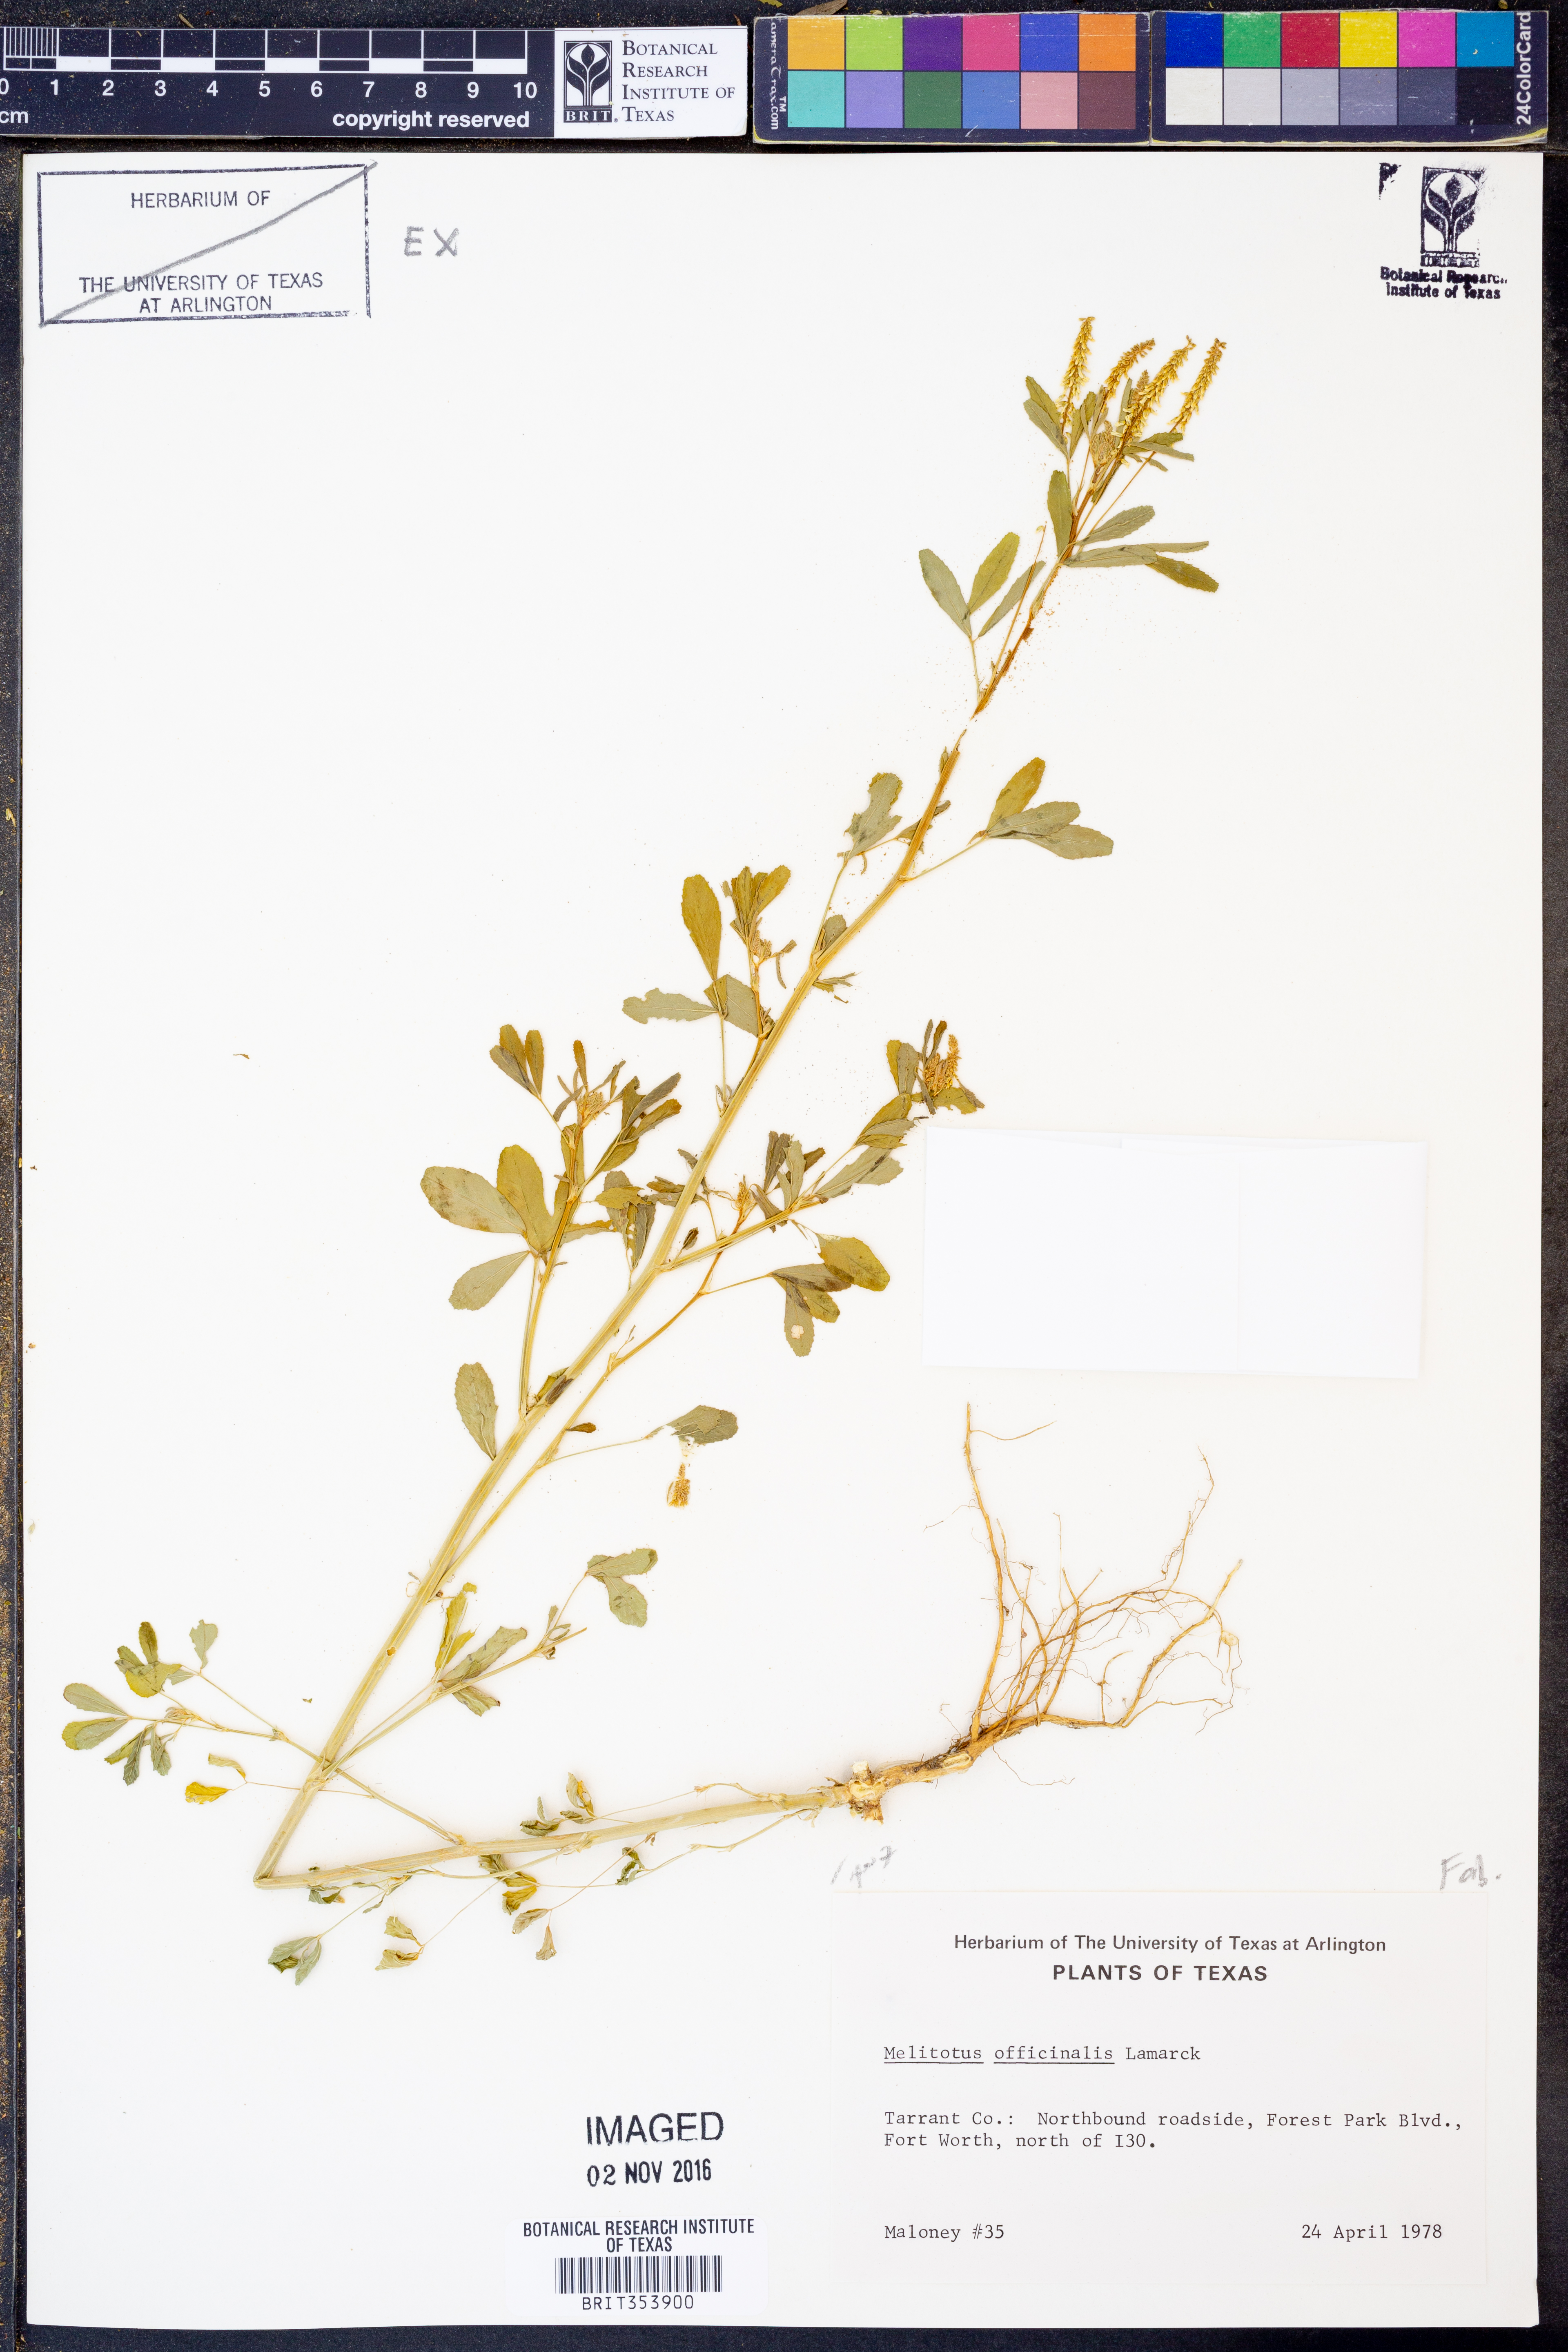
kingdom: Plantae
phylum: Tracheophyta
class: Magnoliopsida
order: Fabales
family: Fabaceae
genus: Melilotus
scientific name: Melilotus officinalis
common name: Sweetclover
